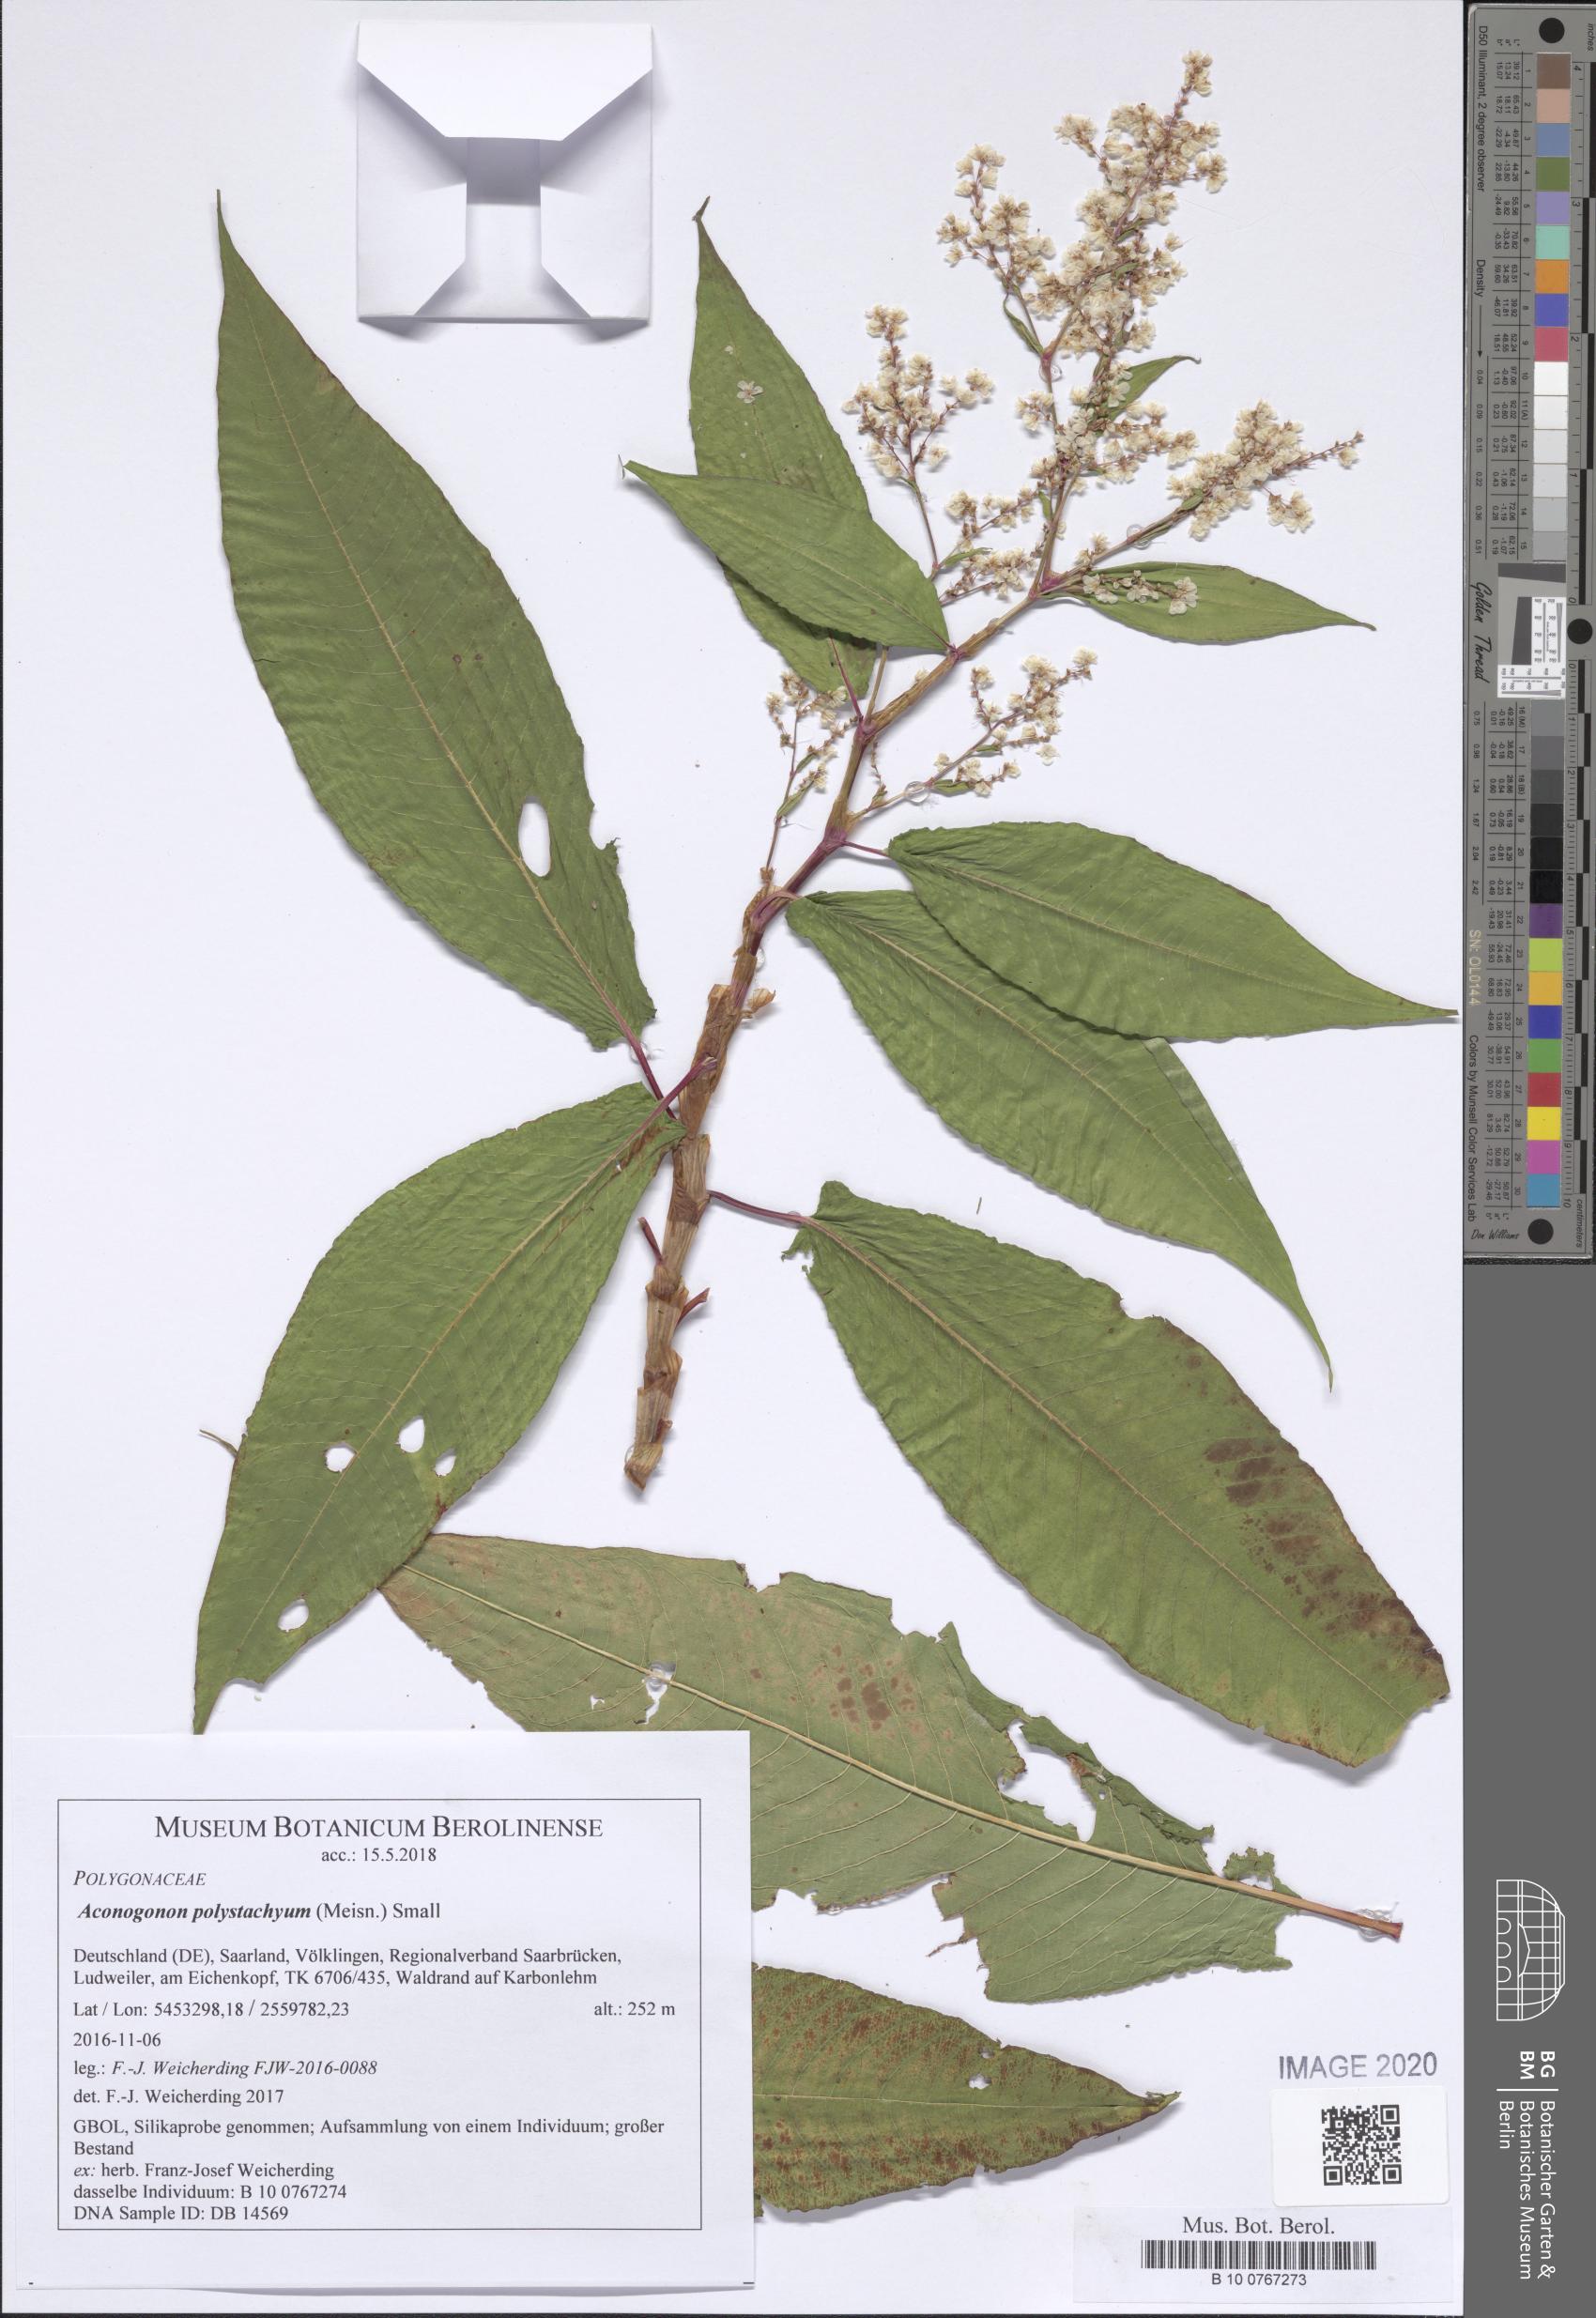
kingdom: Plantae
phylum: Tracheophyta
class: Magnoliopsida
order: Caryophyllales
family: Polygonaceae
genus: Koenigia
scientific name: Koenigia Aconogonon polystachyum
